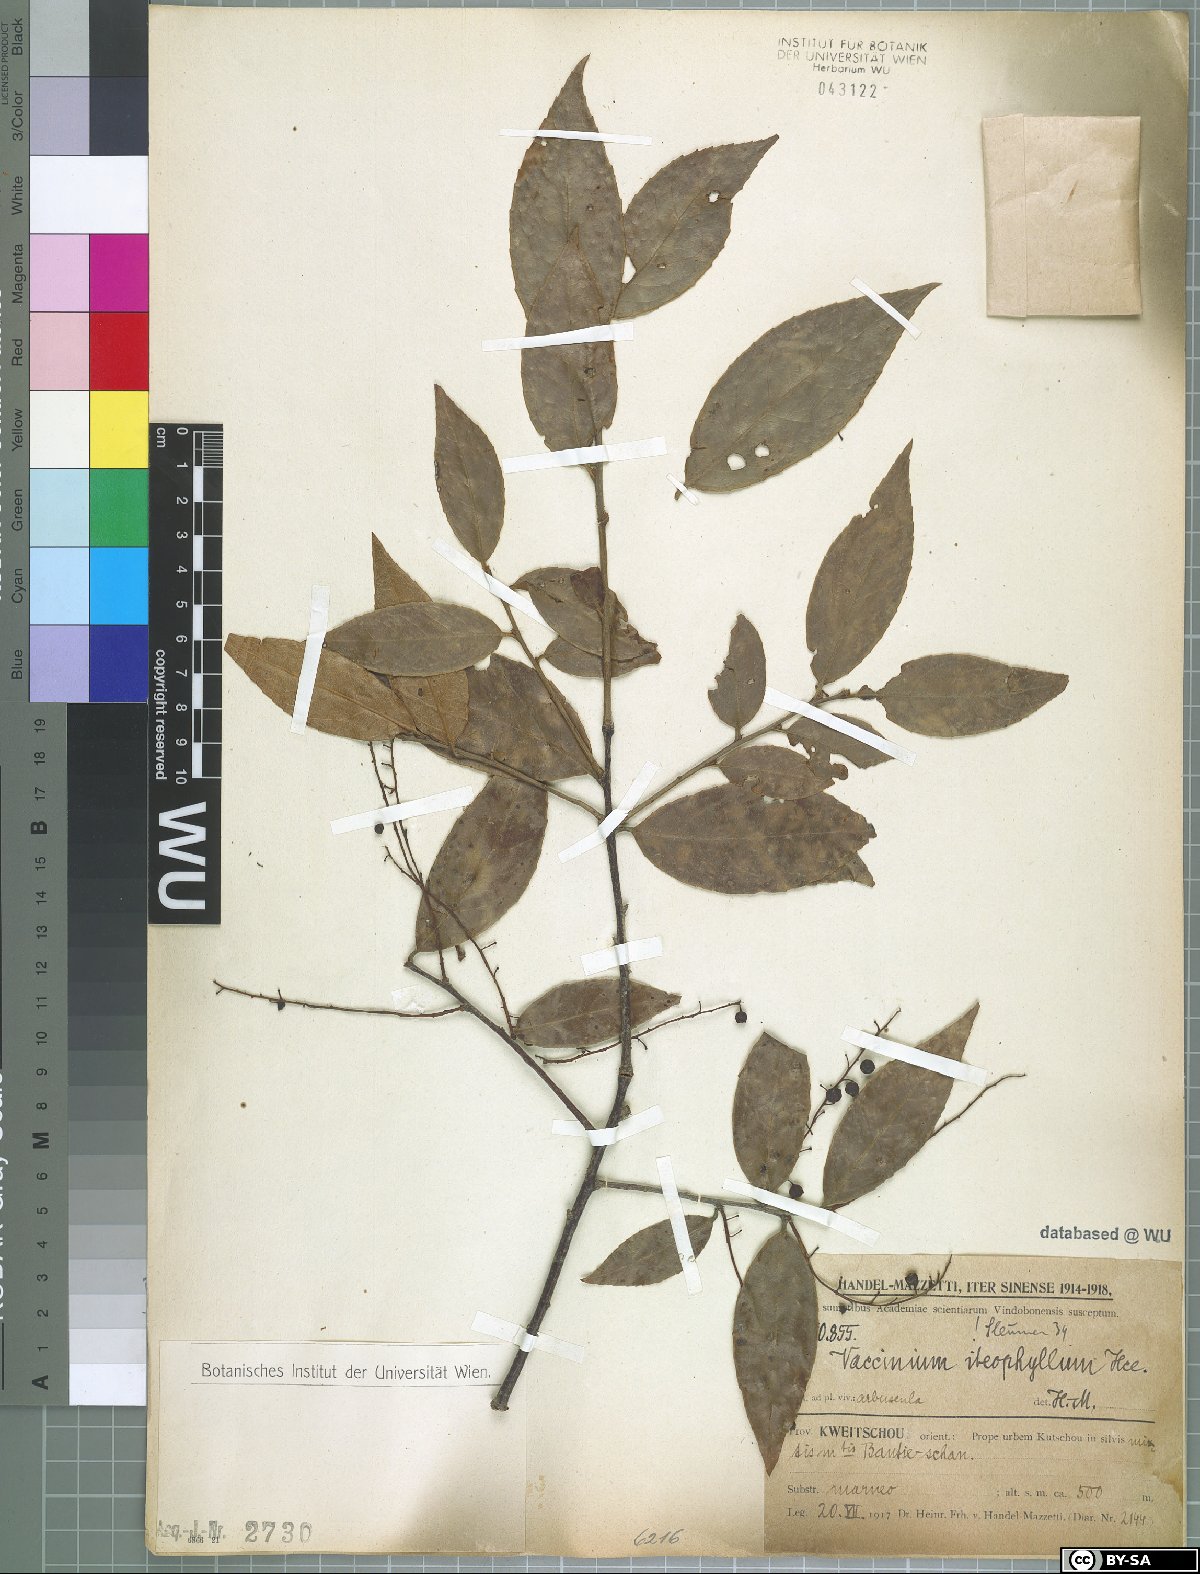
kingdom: Plantae
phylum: Tracheophyta
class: Magnoliopsida
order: Ericales
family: Ericaceae
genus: Vaccinium
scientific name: Vaccinium iteophyllum
